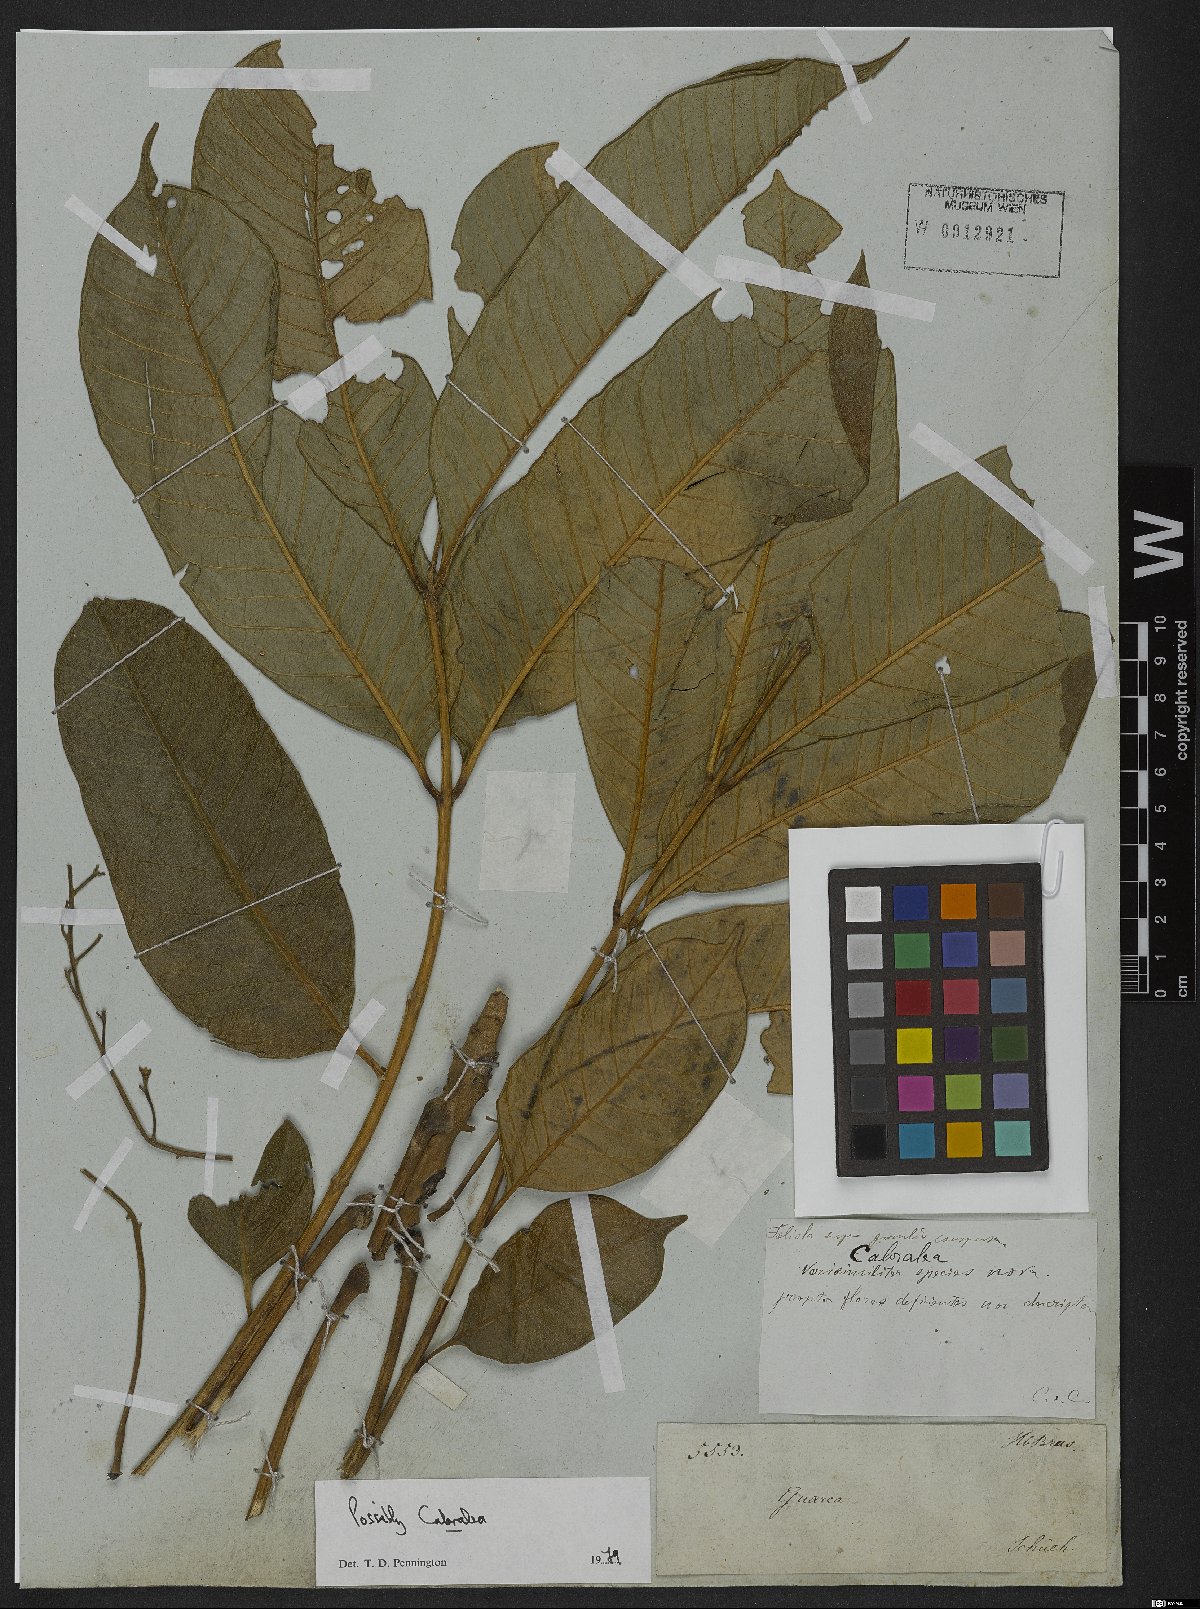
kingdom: Plantae
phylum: Tracheophyta
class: Magnoliopsida
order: Sapindales
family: Meliaceae
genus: Cabralea
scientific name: Cabralea
